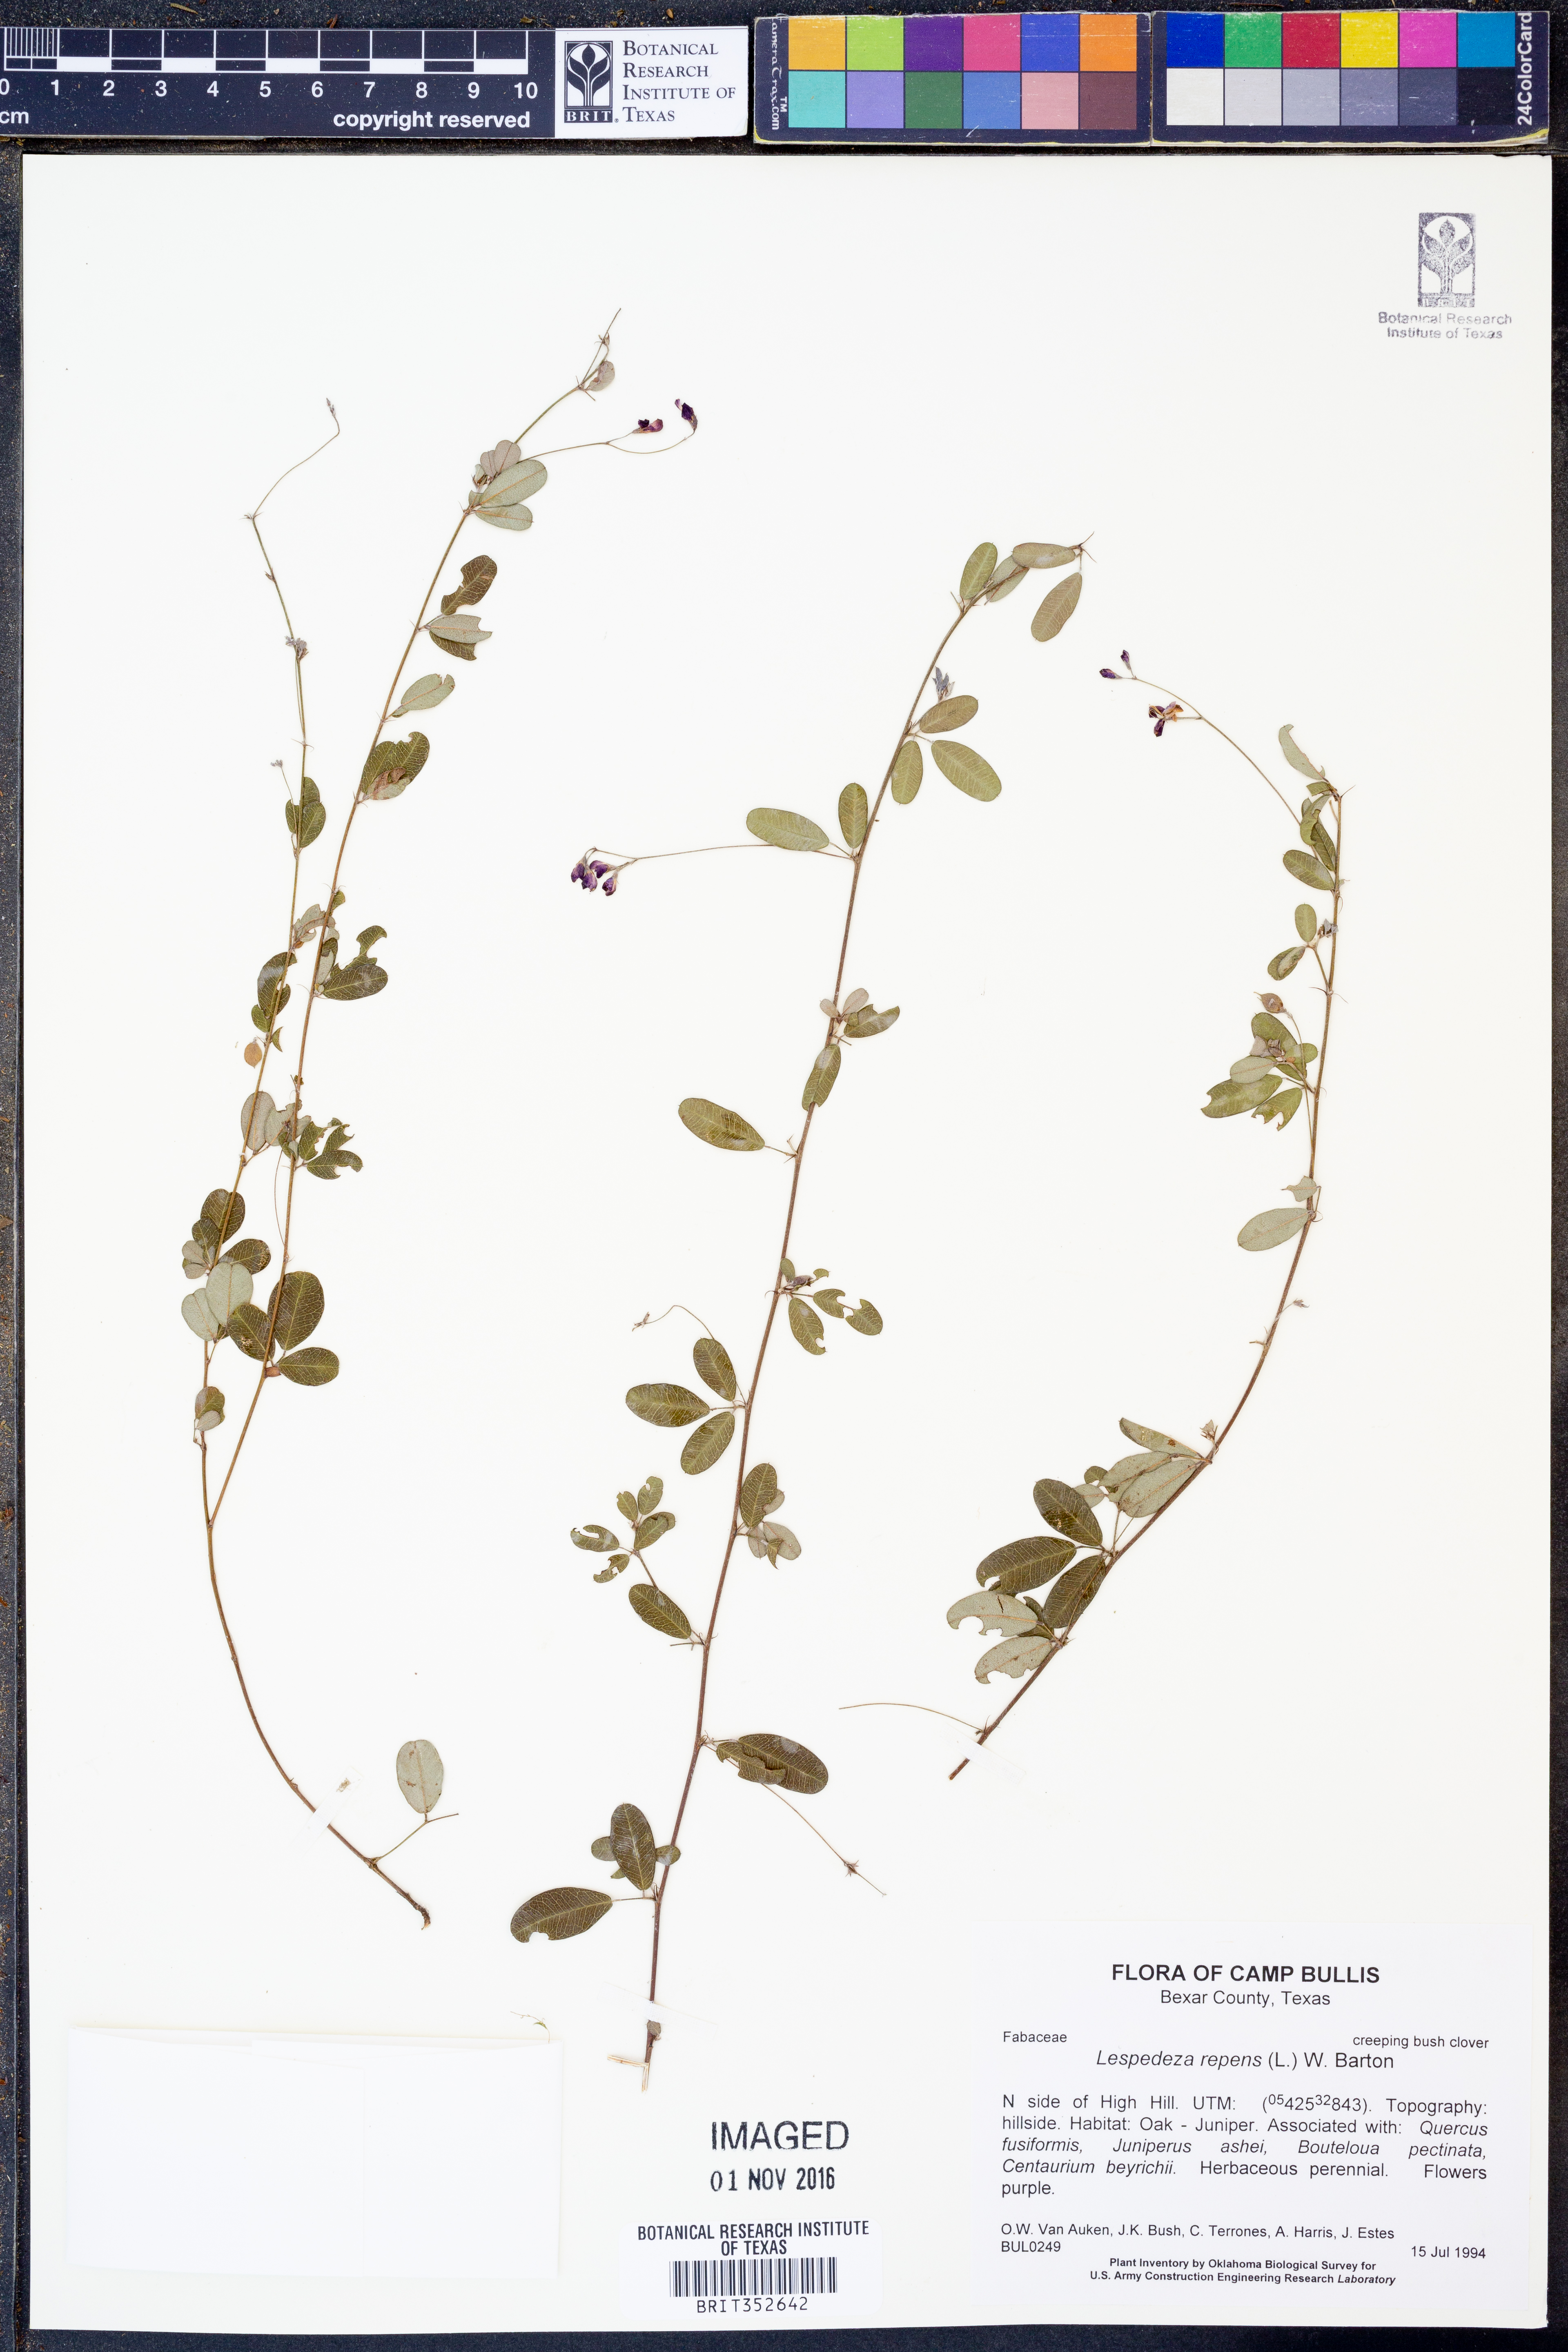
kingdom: Plantae
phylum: Tracheophyta
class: Magnoliopsida
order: Fabales
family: Fabaceae
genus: Lespedeza
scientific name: Lespedeza repens
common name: Creeping bush-clover
